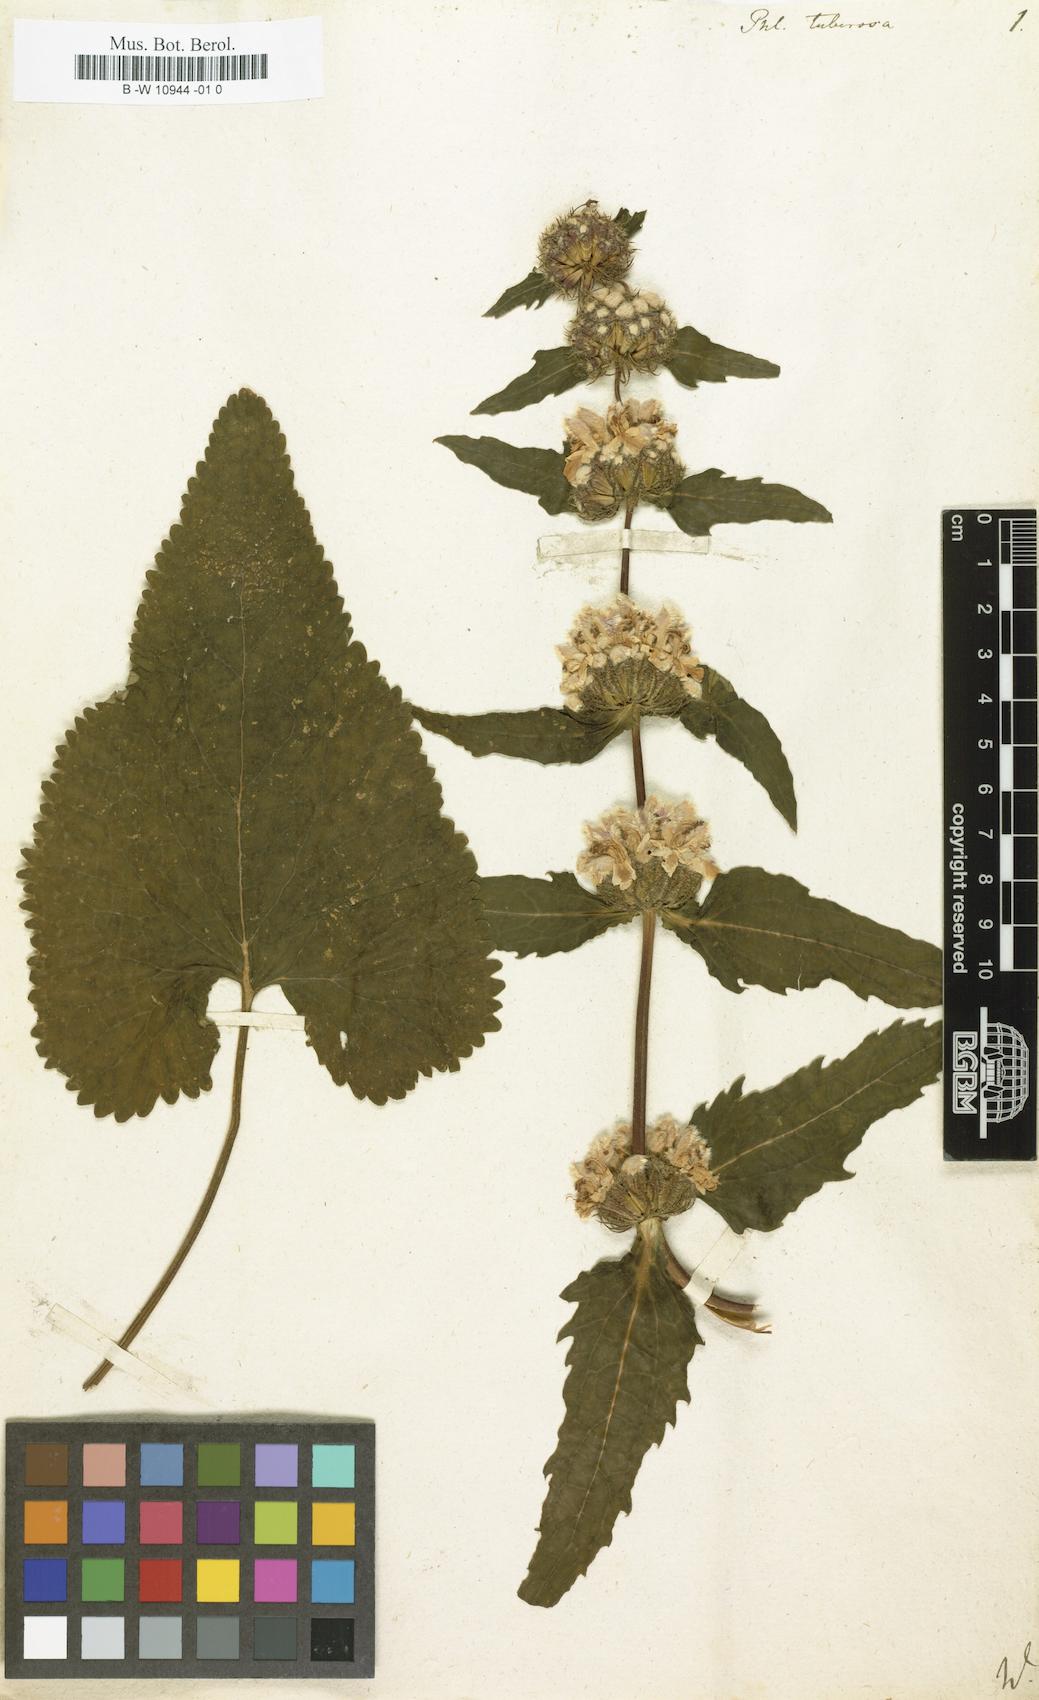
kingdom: Plantae
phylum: Tracheophyta
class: Magnoliopsida
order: Lamiales
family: Lamiaceae
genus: Phlomoides
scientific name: Phlomoides tuberosa
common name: Tuberous jerusalem sage
